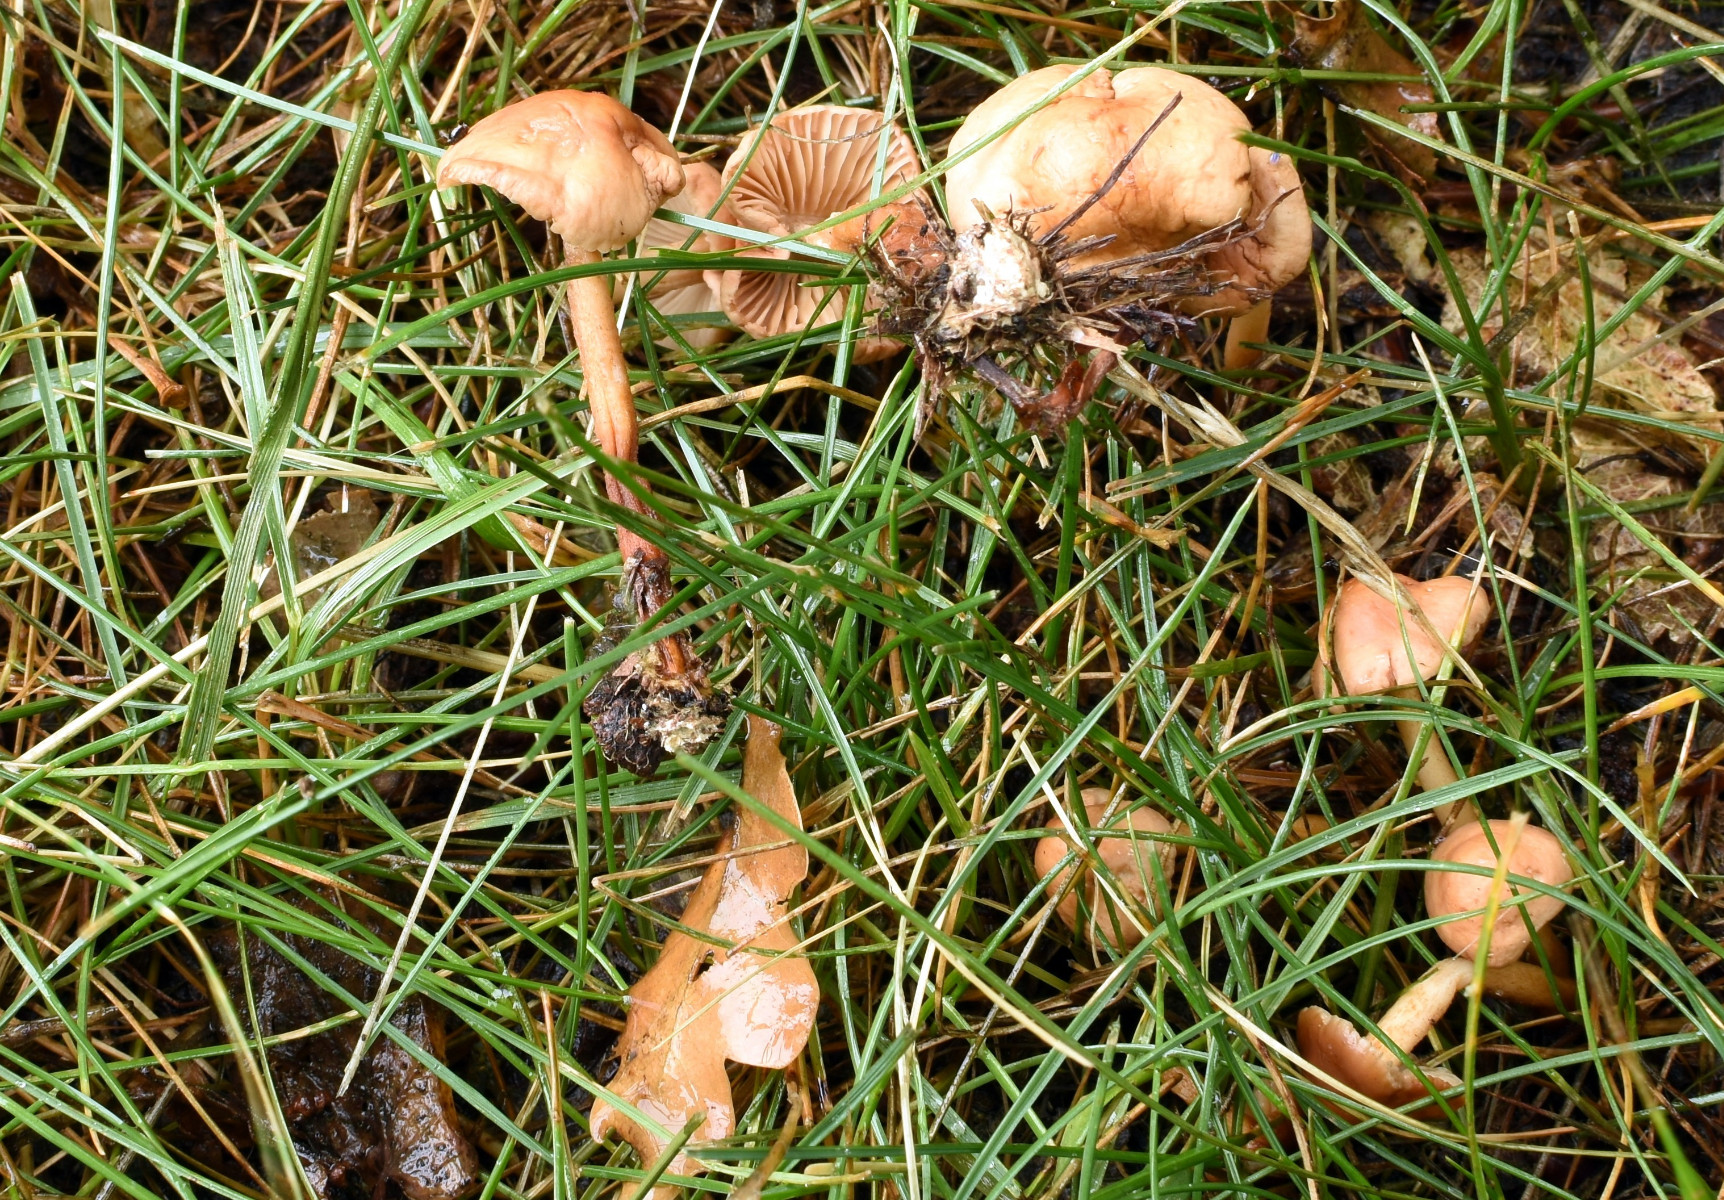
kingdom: Fungi
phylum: Basidiomycota
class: Agaricomycetes
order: Agaricales
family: Marasmiaceae
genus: Marasmius
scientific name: Marasmius oreades
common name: elledans-bruskhat
